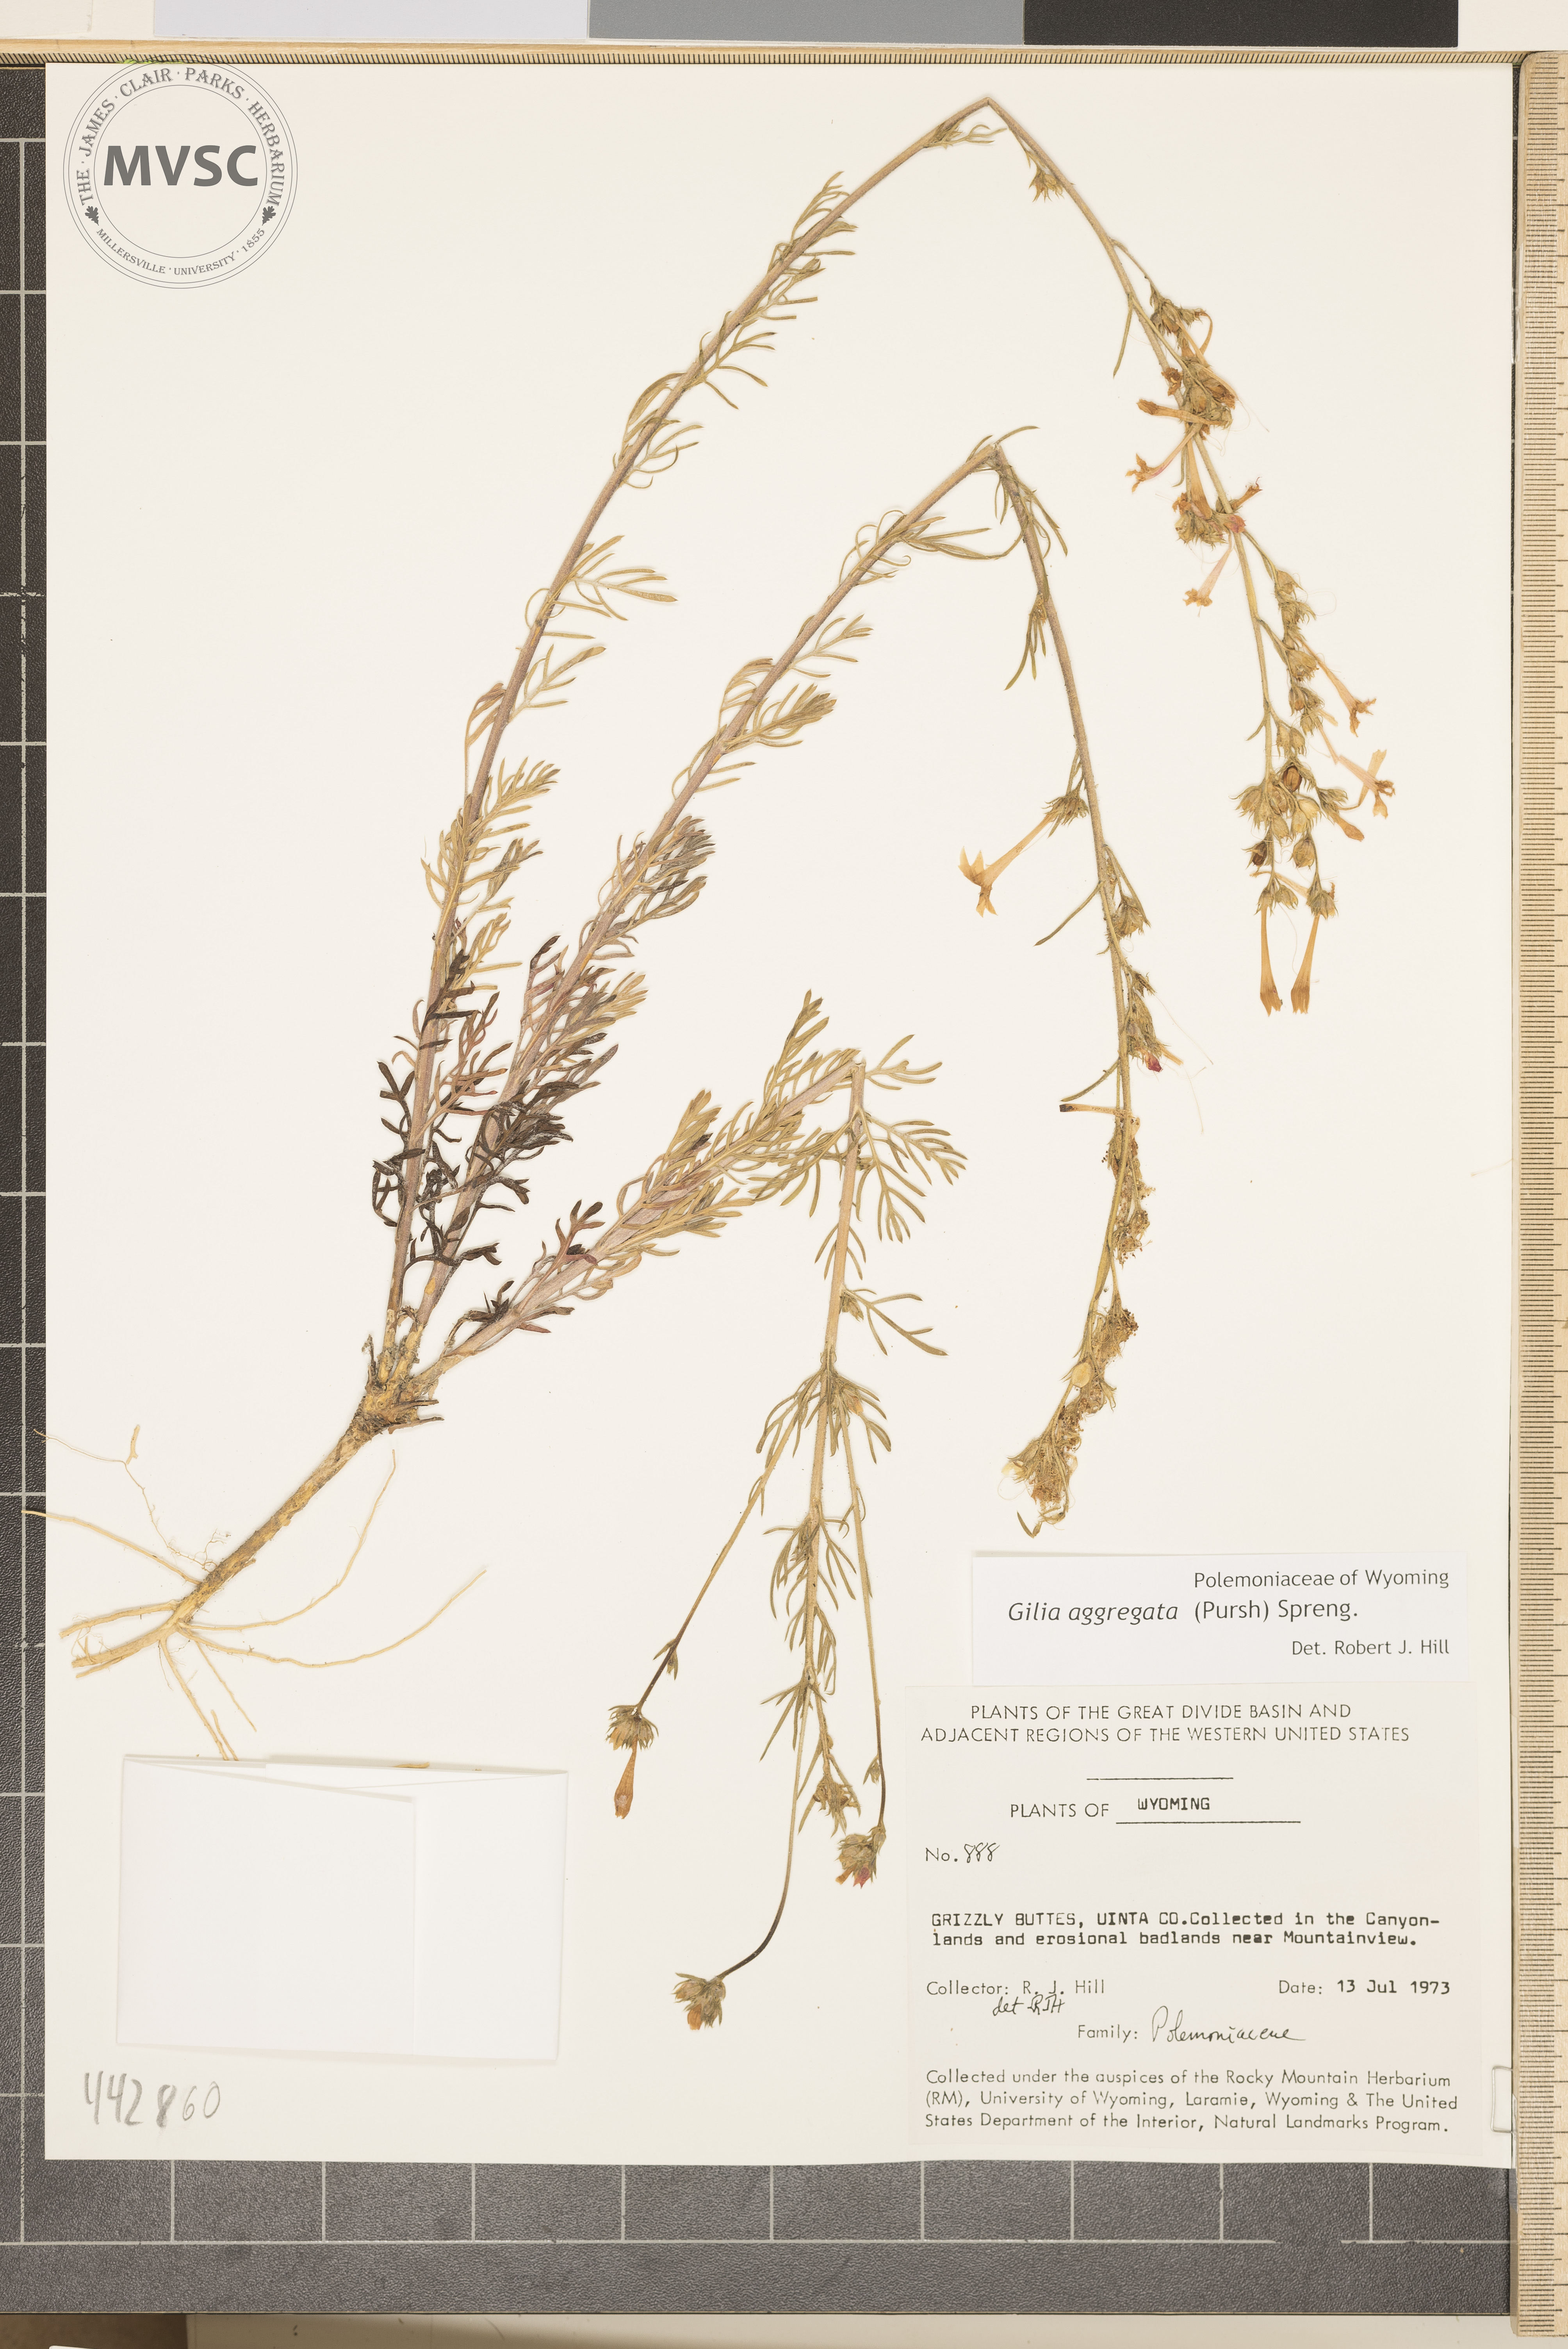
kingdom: Plantae
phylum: Tracheophyta
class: Magnoliopsida
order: Ericales
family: Polemoniaceae
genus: Ipomopsis
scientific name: Ipomopsis aggregata
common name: Scarlet gilia
